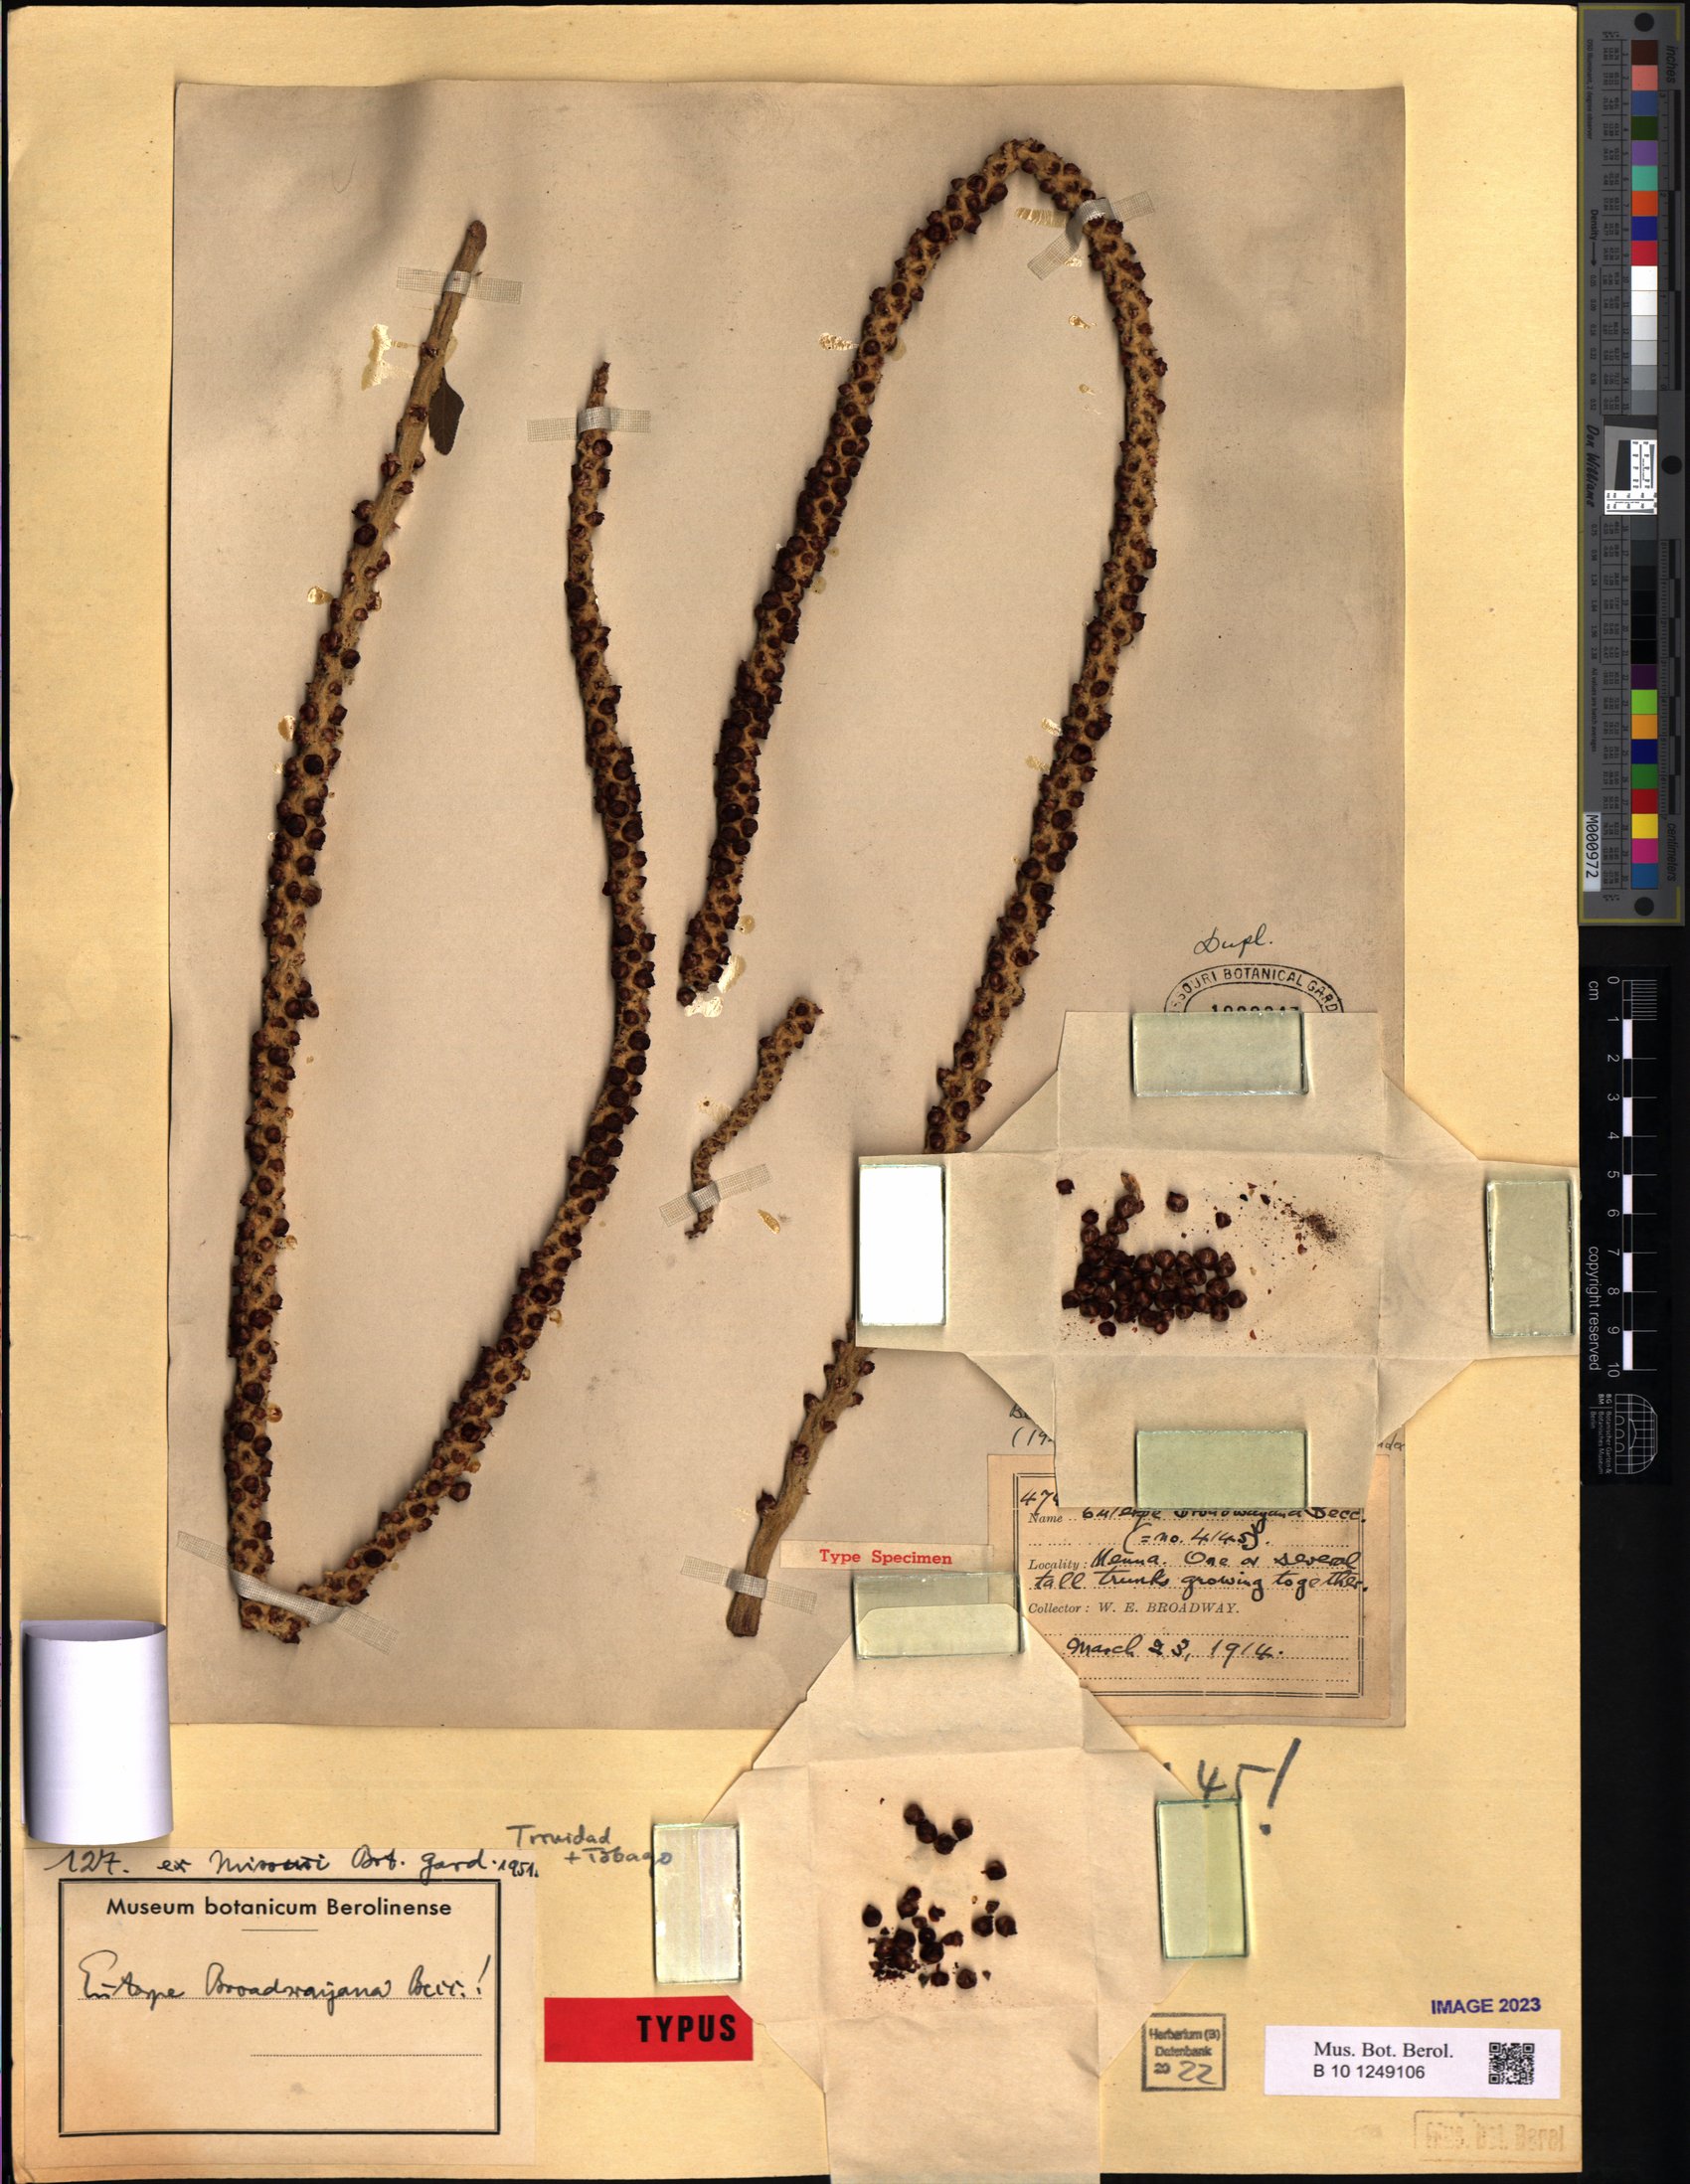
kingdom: Plantae
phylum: Tracheophyta
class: Liliopsida
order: Arecales
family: Arecaceae
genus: Euterpe
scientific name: Euterpe broadwayi
